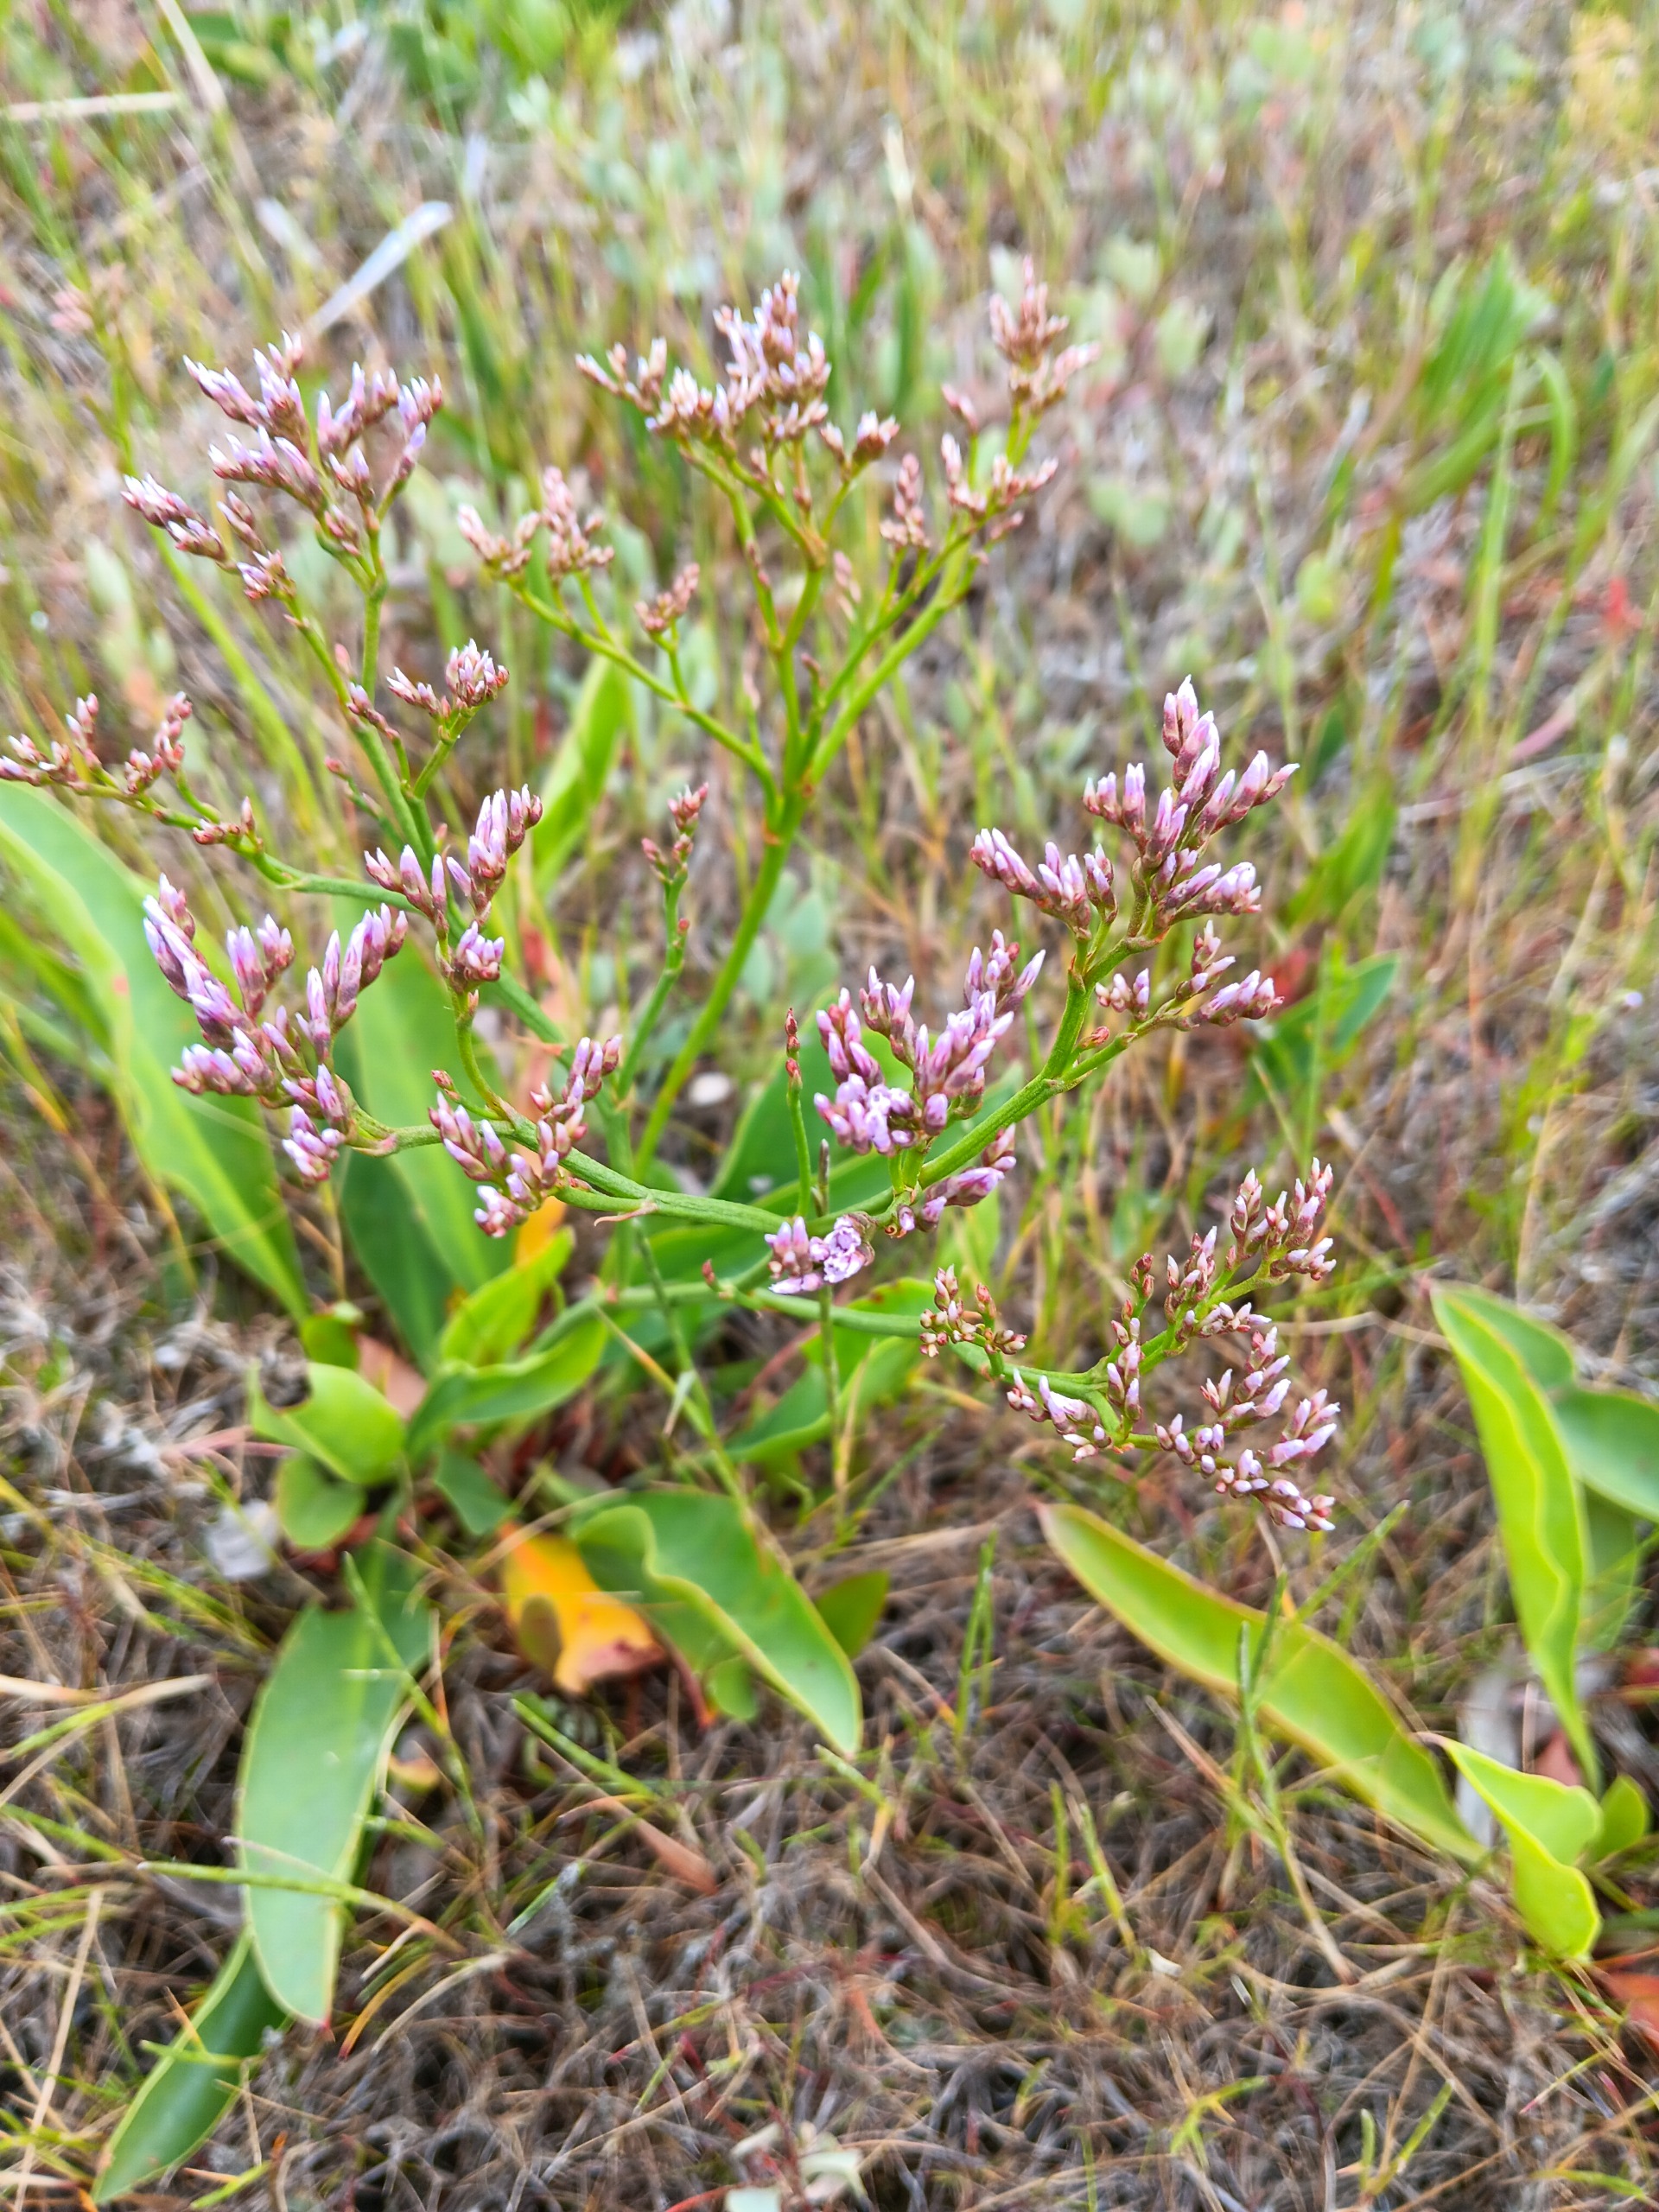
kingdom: Plantae
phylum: Tracheophyta
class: Magnoliopsida
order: Caryophyllales
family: Plumbaginaceae
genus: Limonium
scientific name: Limonium vulgare
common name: Tætblomstret hindebæger
